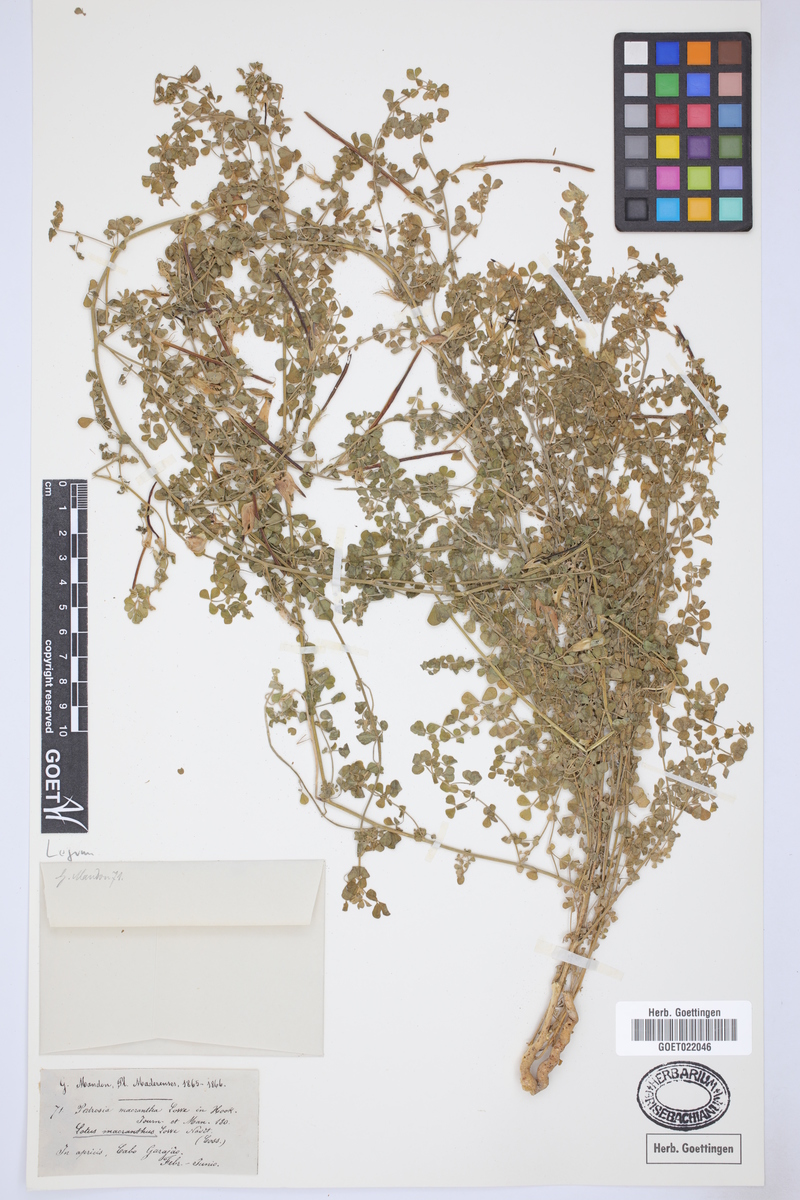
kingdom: Plantae
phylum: Tracheophyta
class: Magnoliopsida
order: Fabales
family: Fabaceae
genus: Lotus
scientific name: Lotus macranthus
